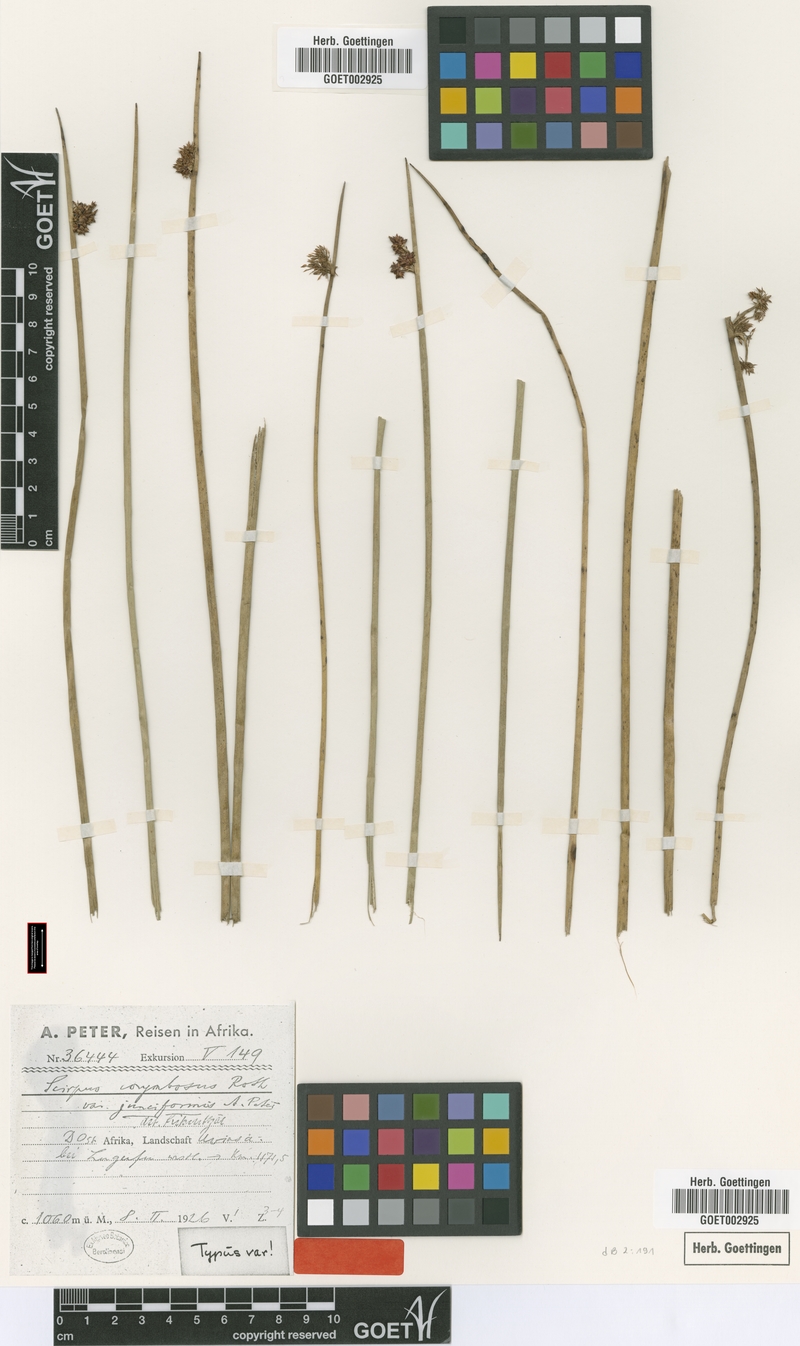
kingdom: Plantae
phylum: Tracheophyta
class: Liliopsida
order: Poales
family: Cyperaceae
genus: Schoenoplectiella
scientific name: Schoenoplectiella muricinux
